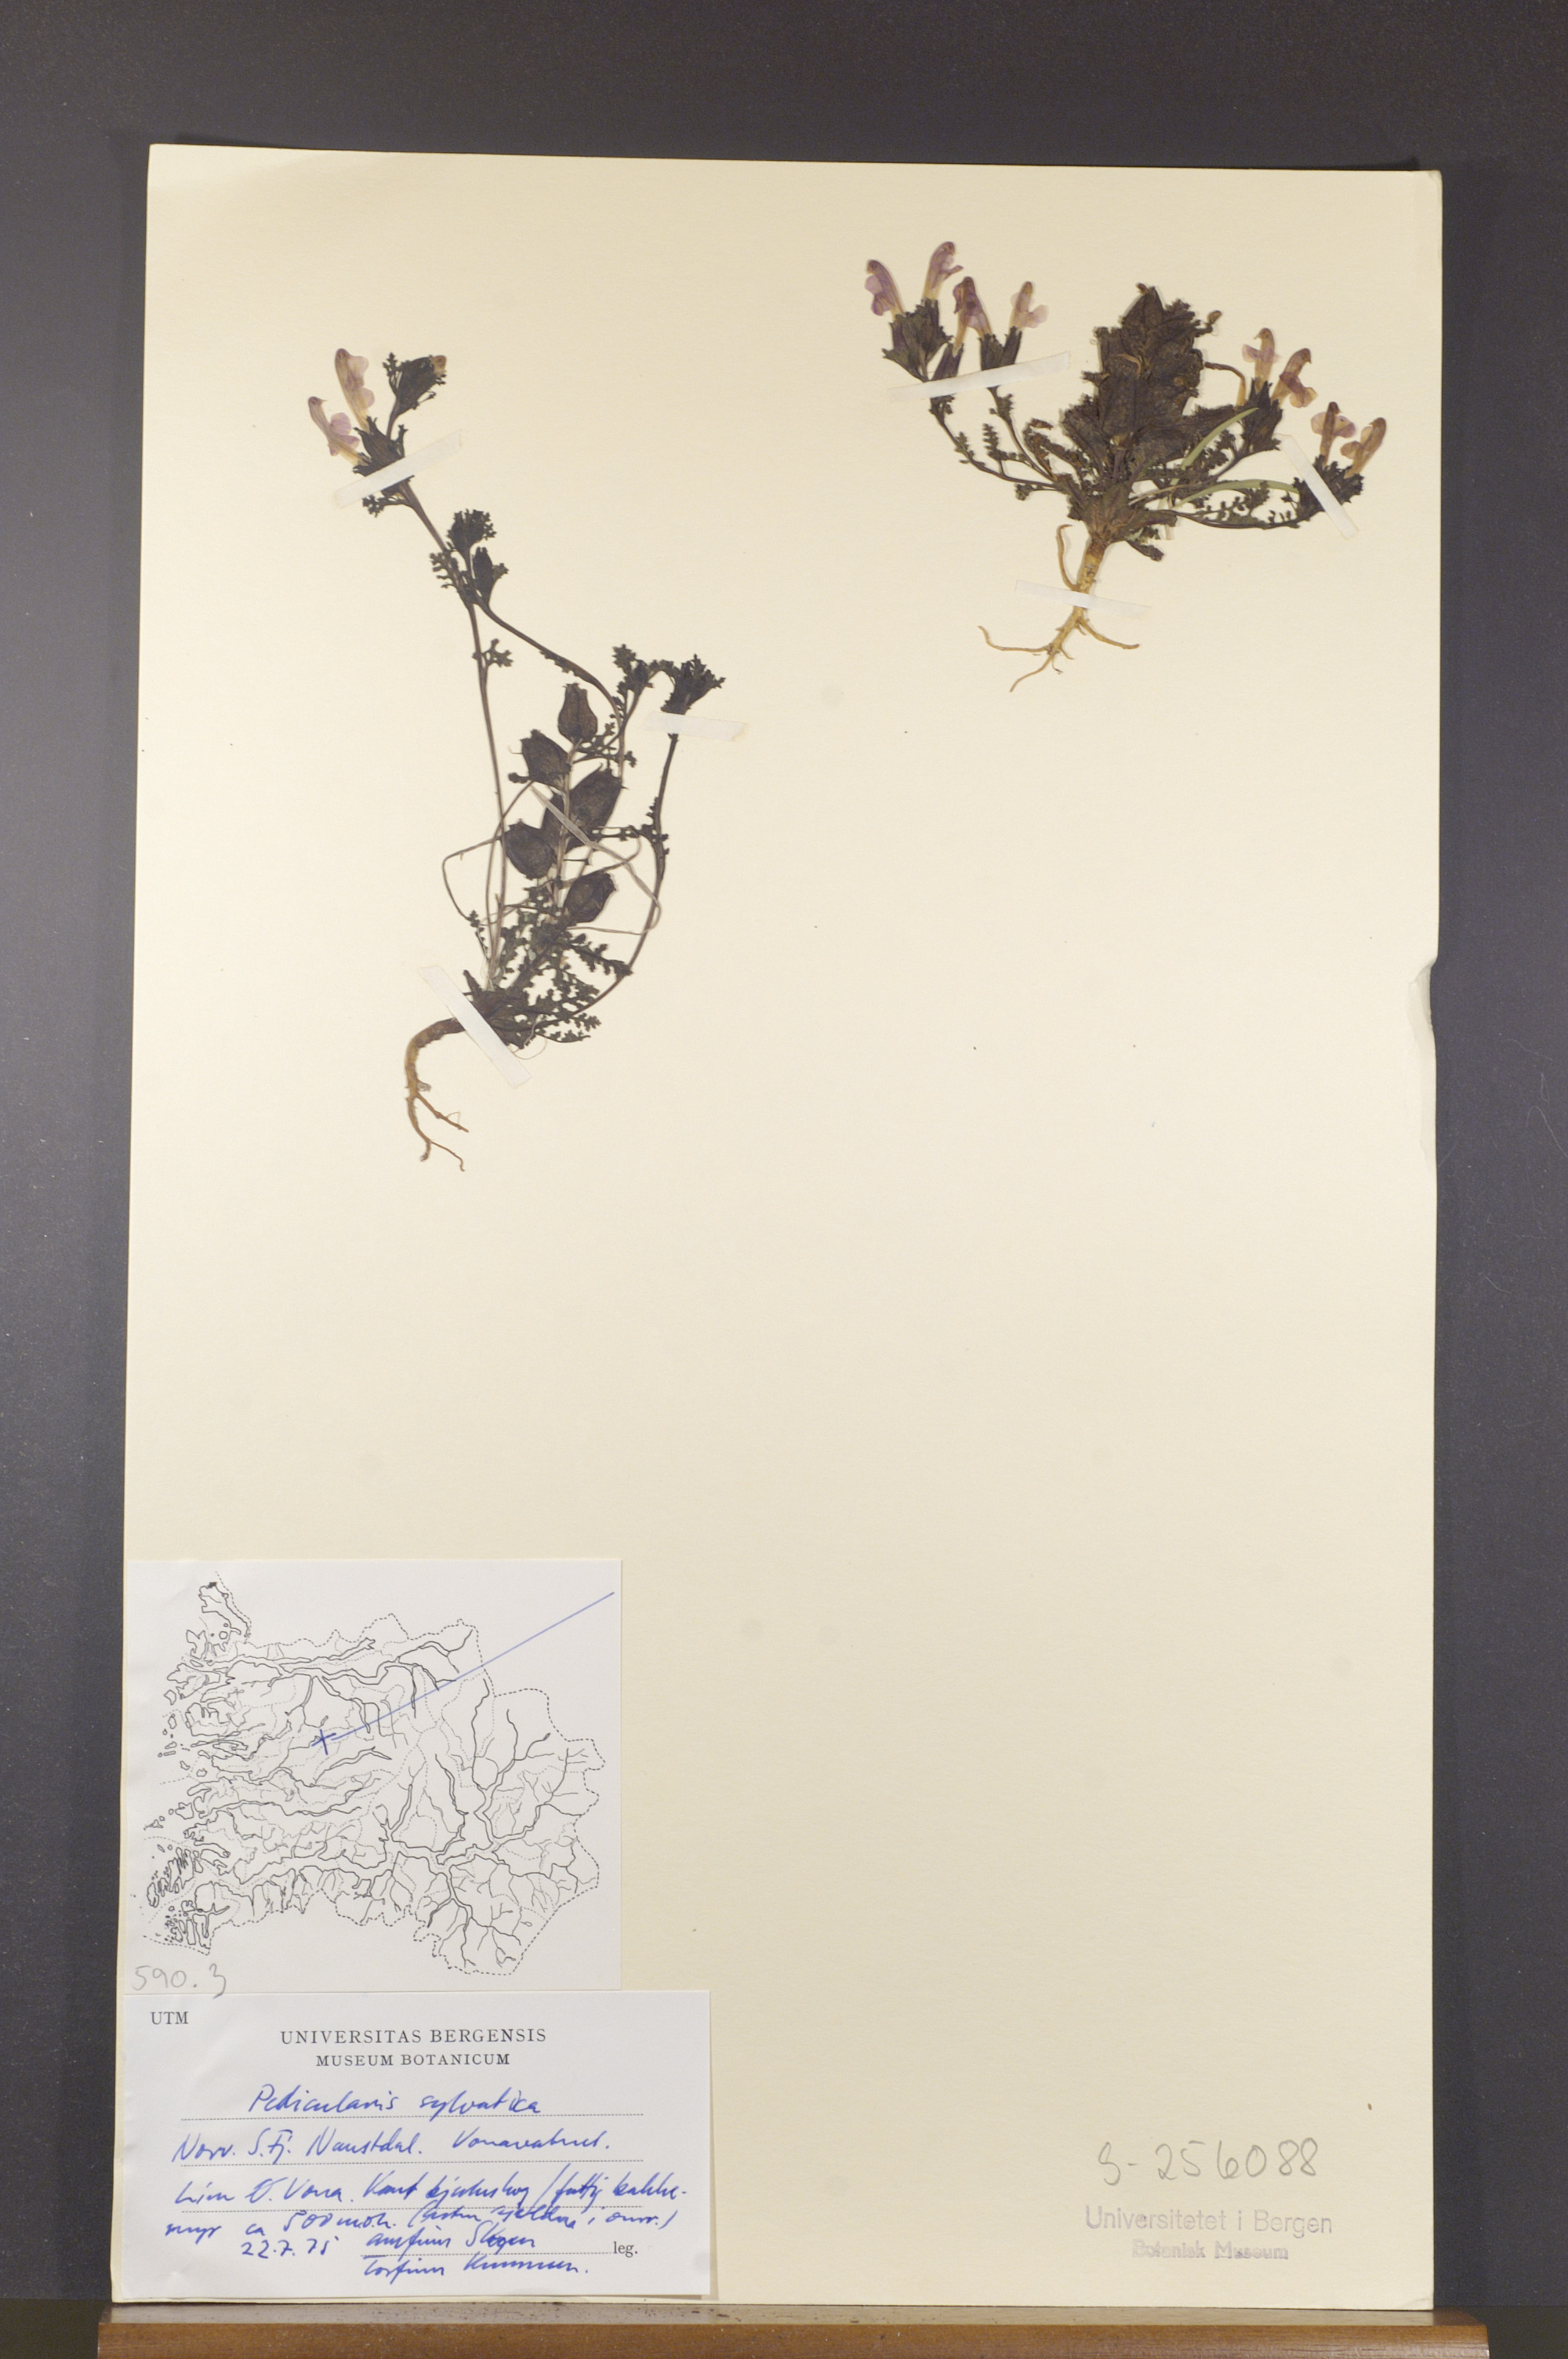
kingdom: Plantae
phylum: Tracheophyta
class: Magnoliopsida
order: Lamiales
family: Orobanchaceae
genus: Pedicularis
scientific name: Pedicularis sylvatica
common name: Lousewort
